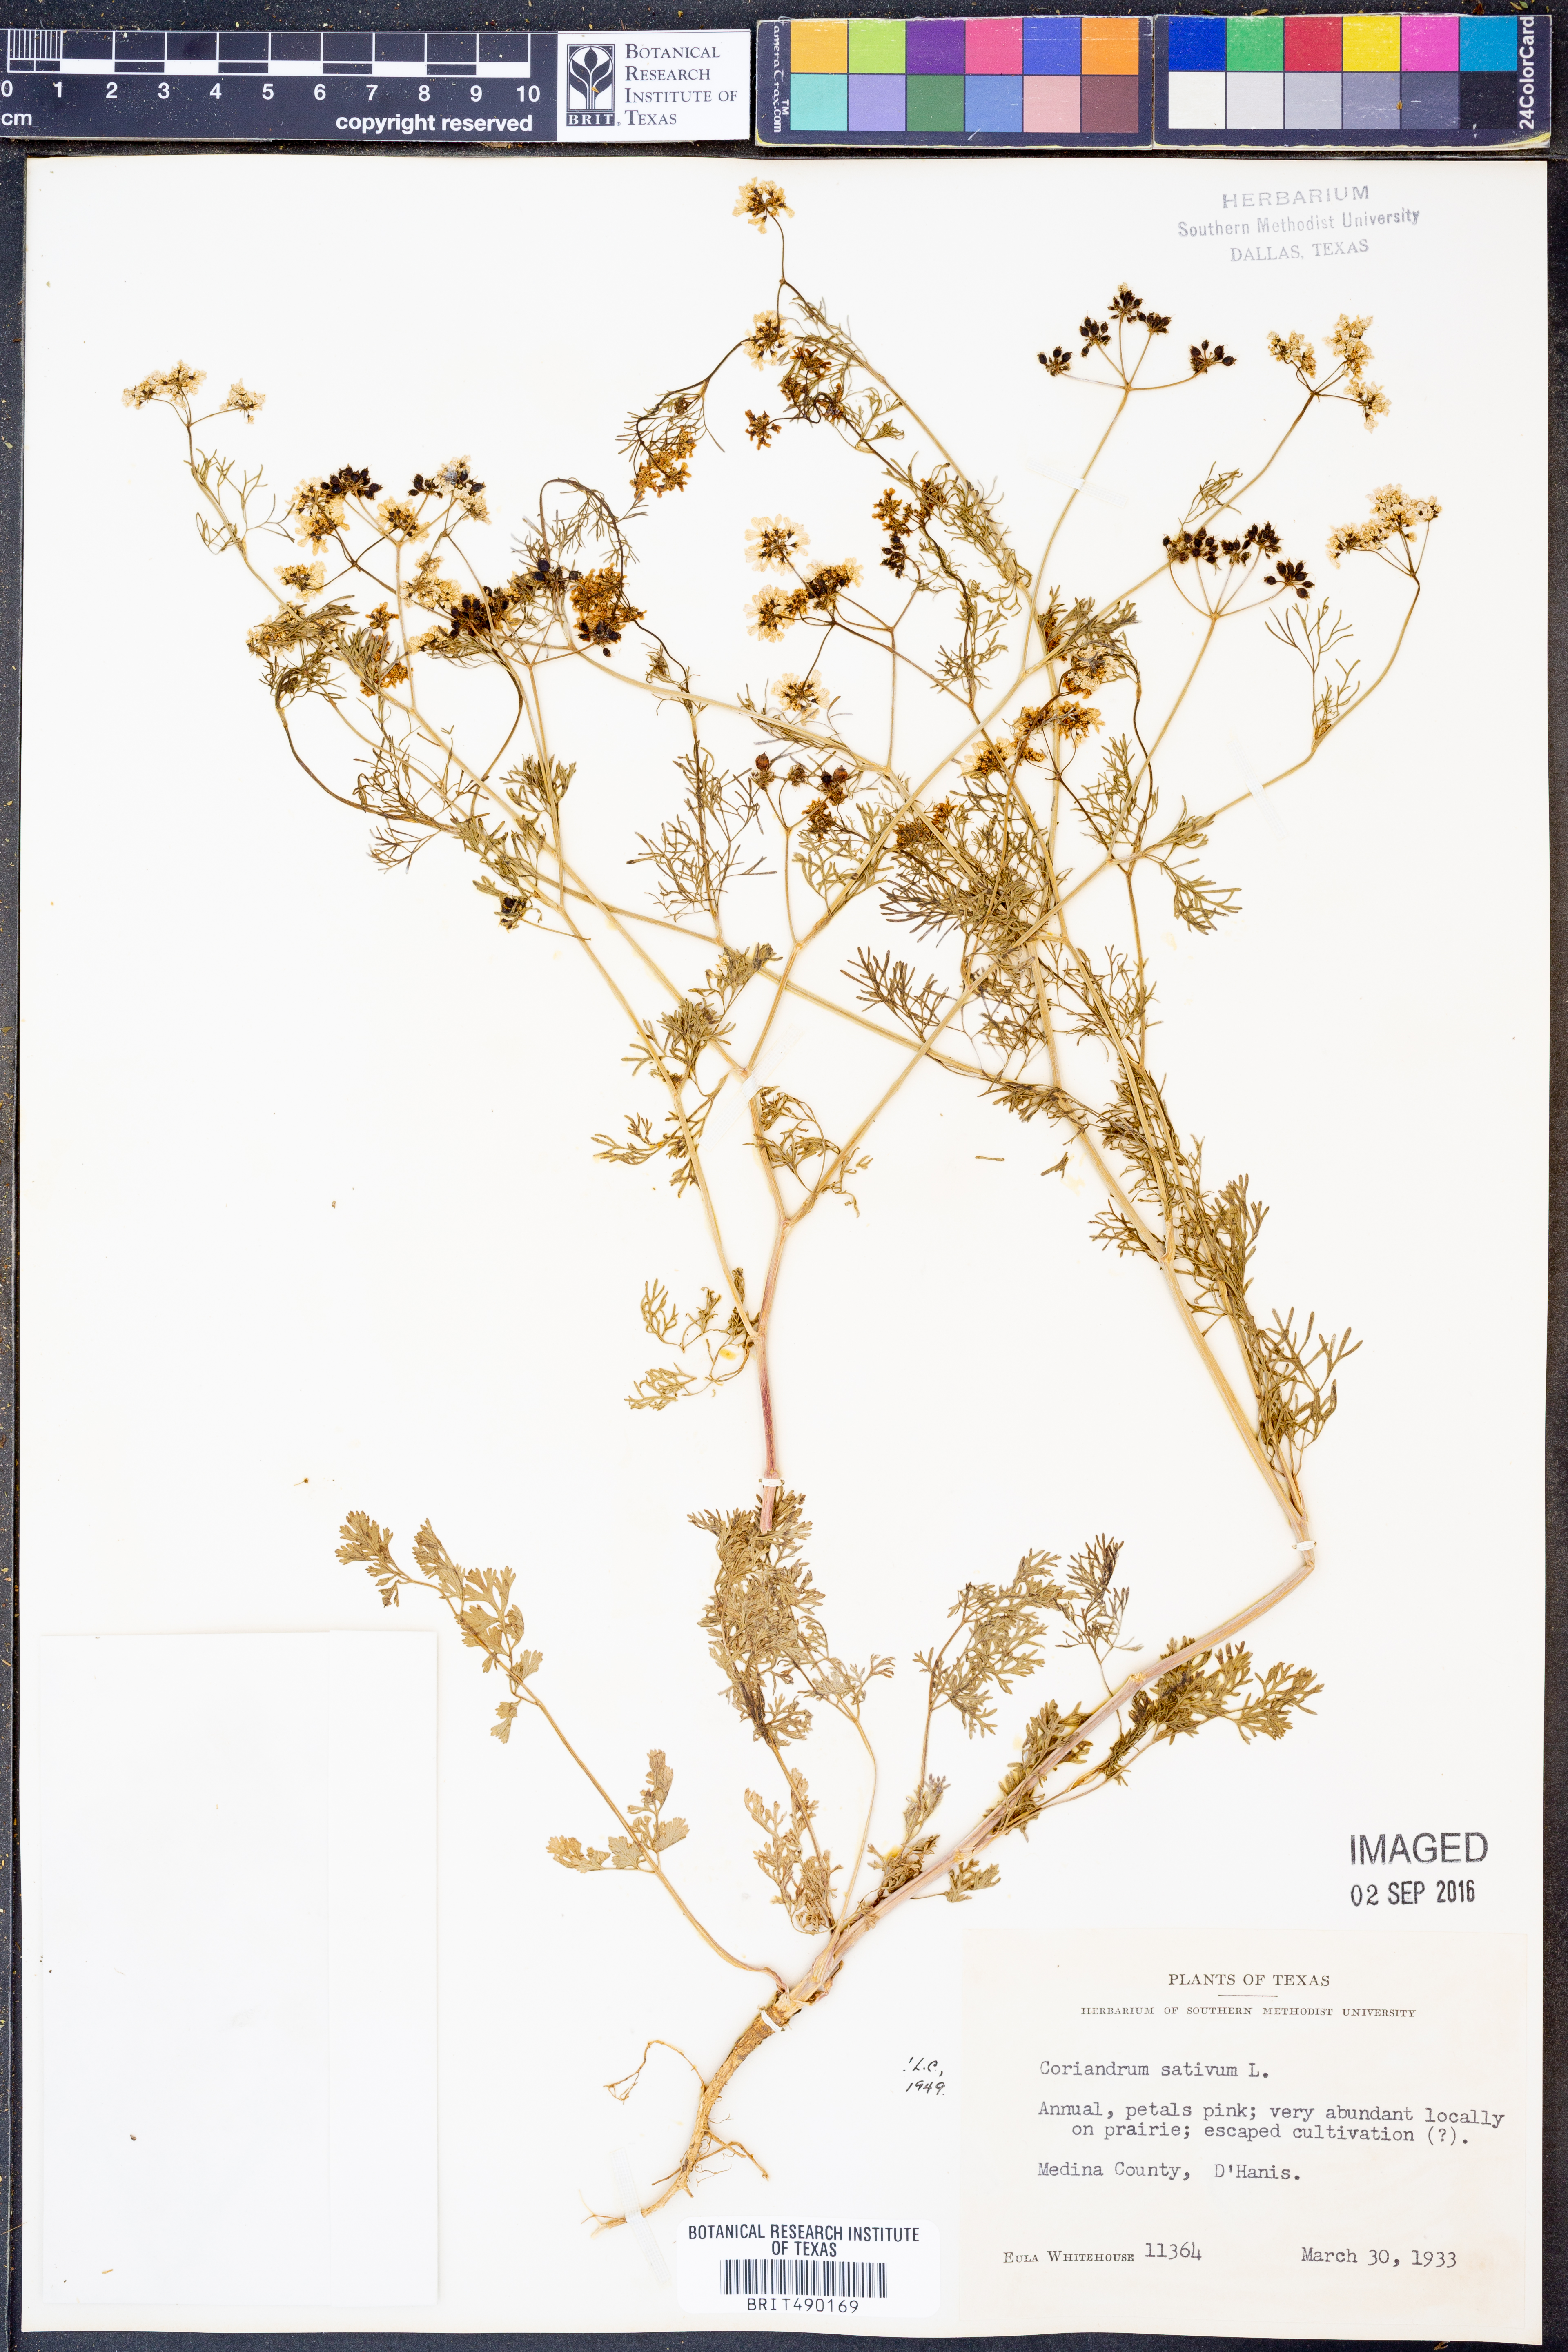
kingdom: Plantae
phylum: Tracheophyta
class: Magnoliopsida
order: Apiales
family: Apiaceae
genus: Coriandrum
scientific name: Coriandrum sativum
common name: Coriander
